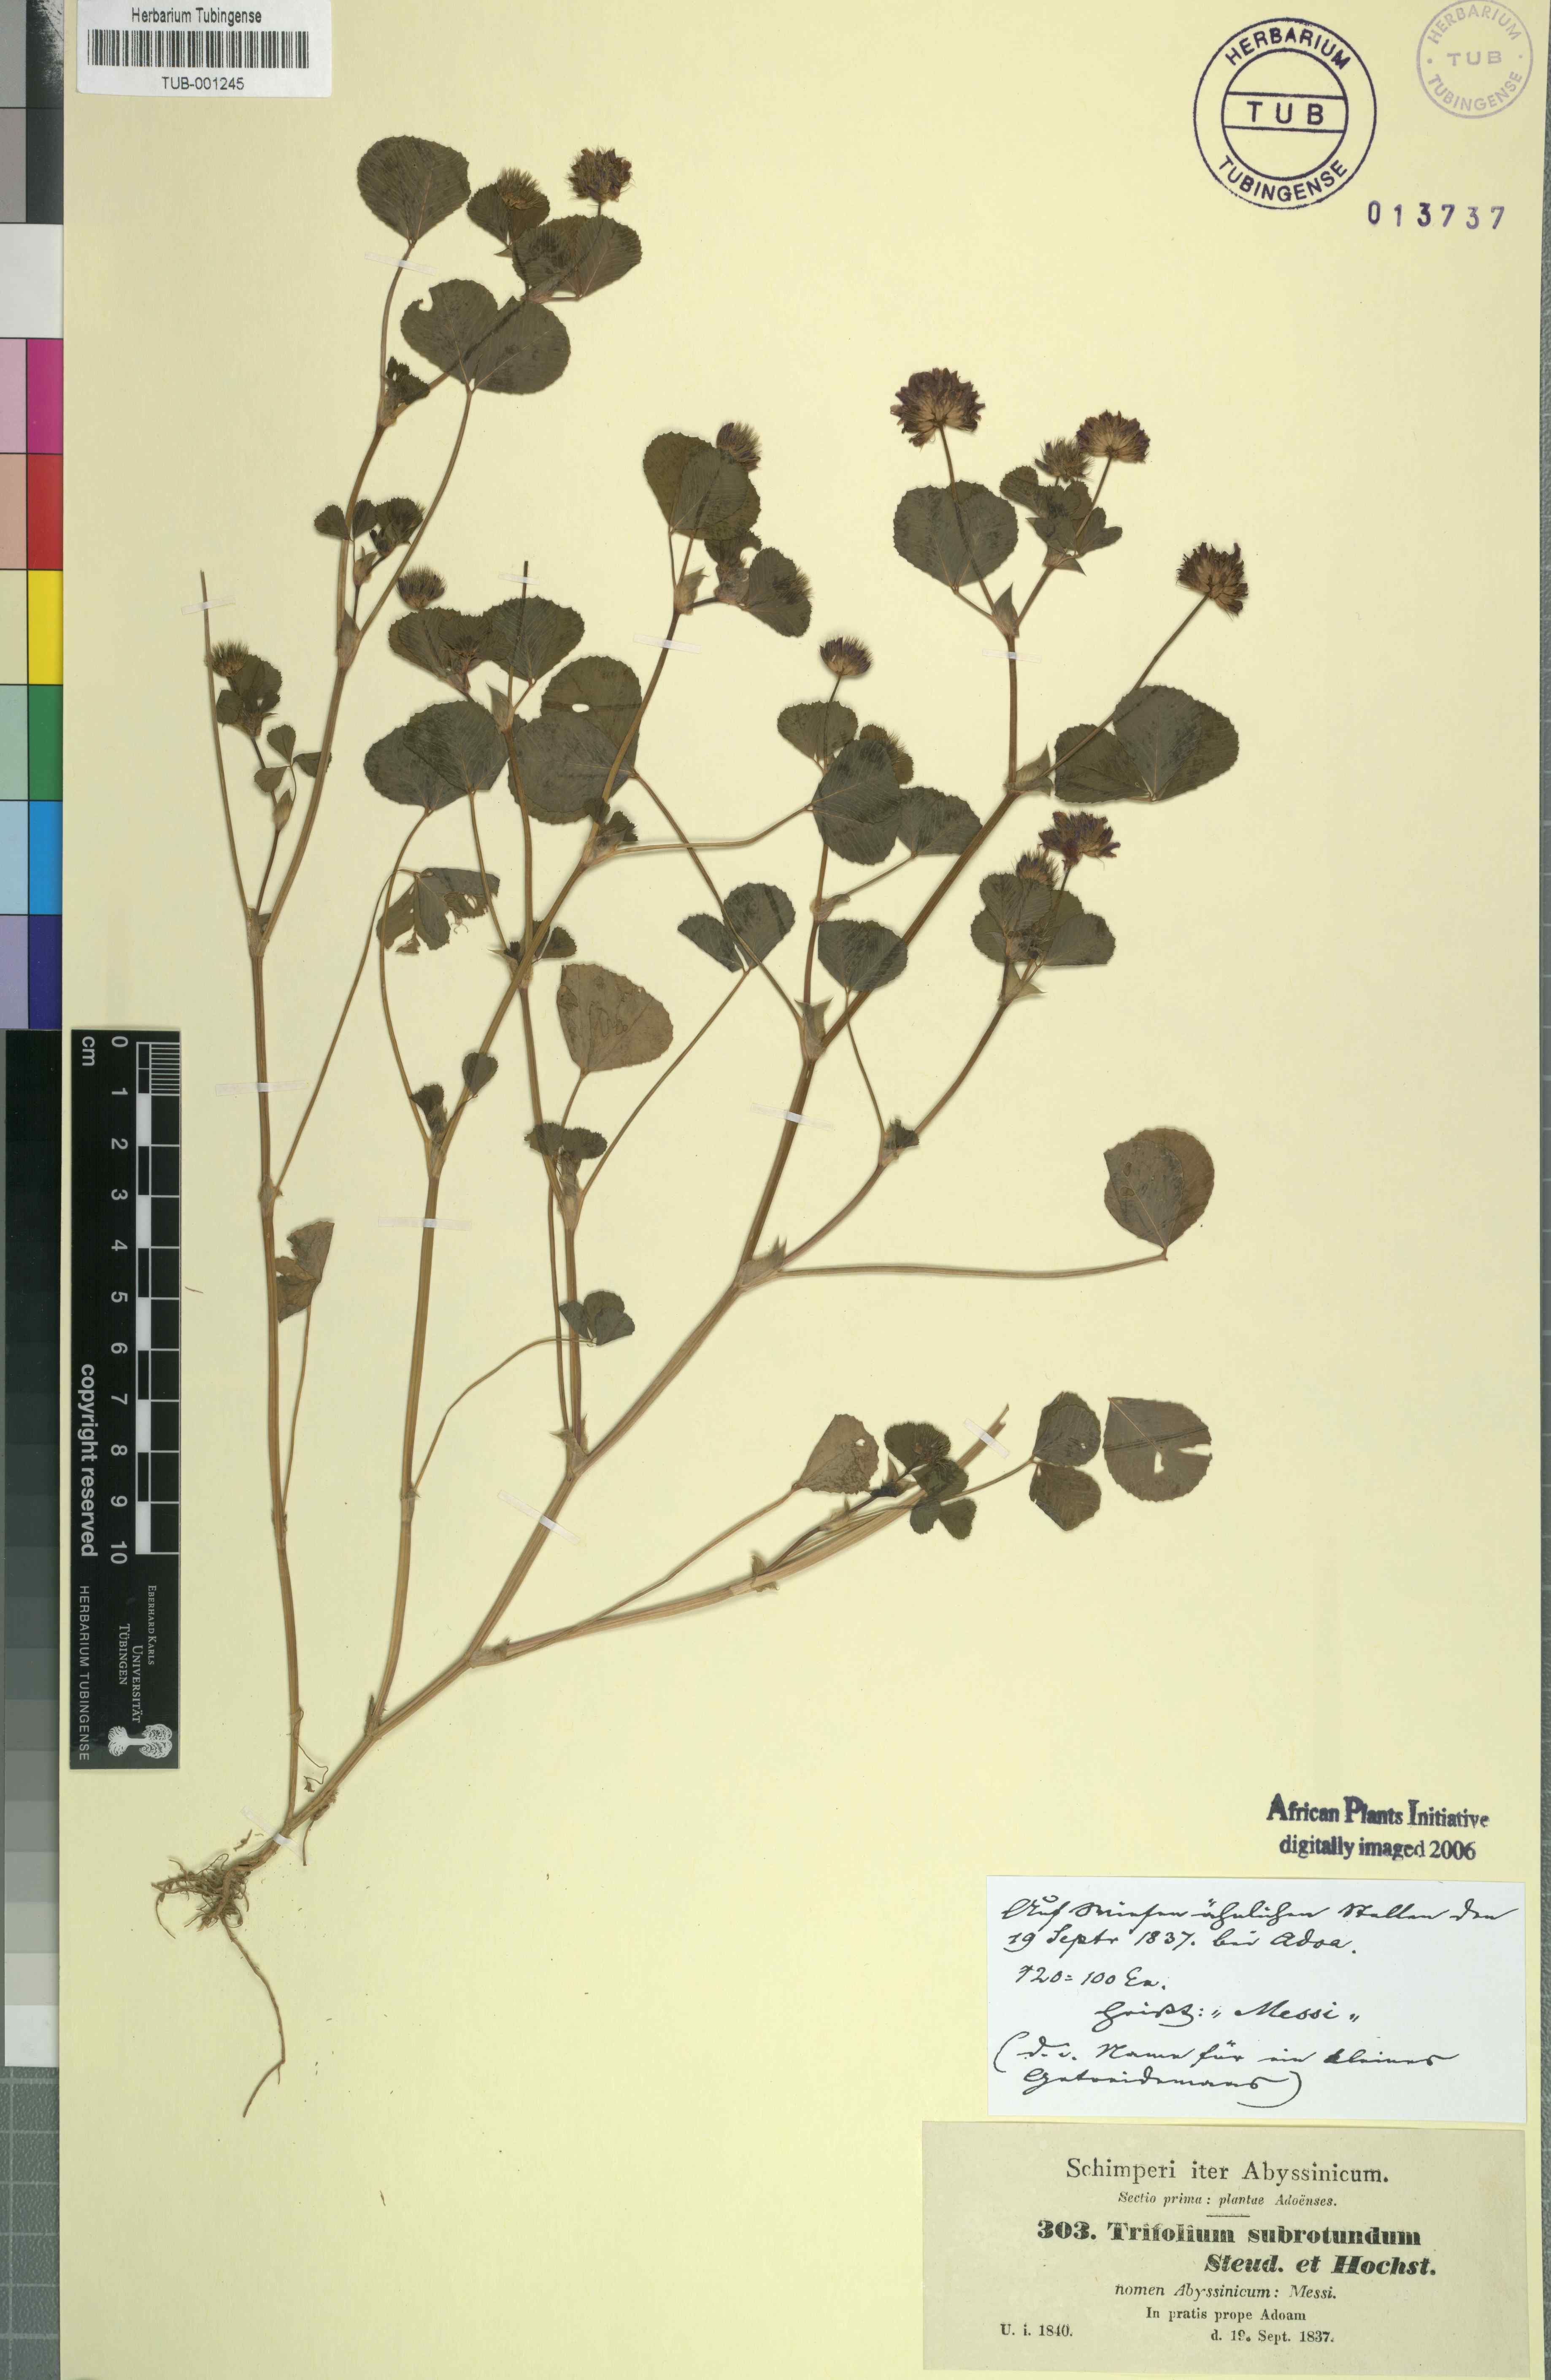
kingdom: Plantae
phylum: Tracheophyta
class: Magnoliopsida
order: Fabales
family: Fabaceae
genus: Trifolium
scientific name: Trifolium rueppellianum
